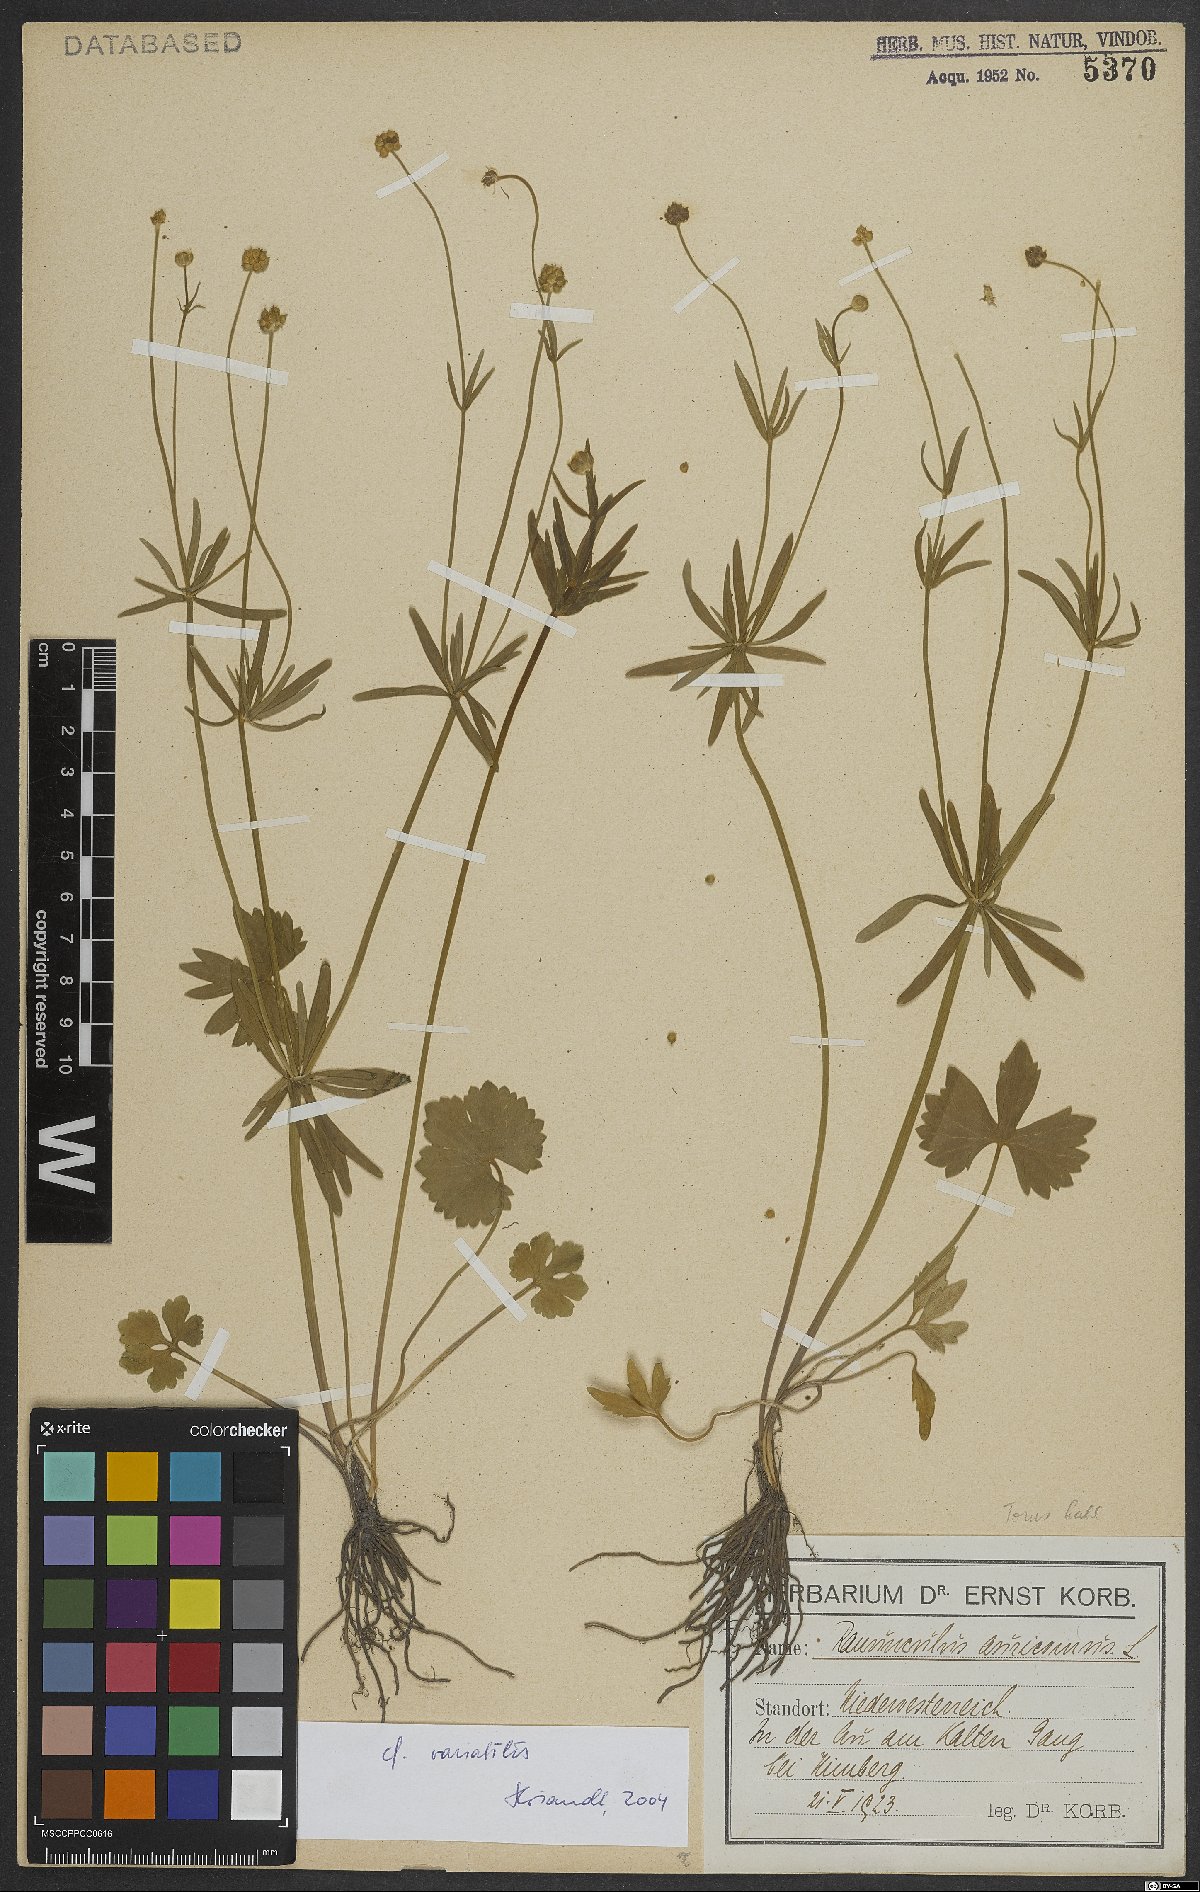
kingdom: Plantae
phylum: Tracheophyta
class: Magnoliopsida
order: Ranunculales
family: Ranunculaceae
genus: Ranunculus
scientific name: Ranunculus variabilis
